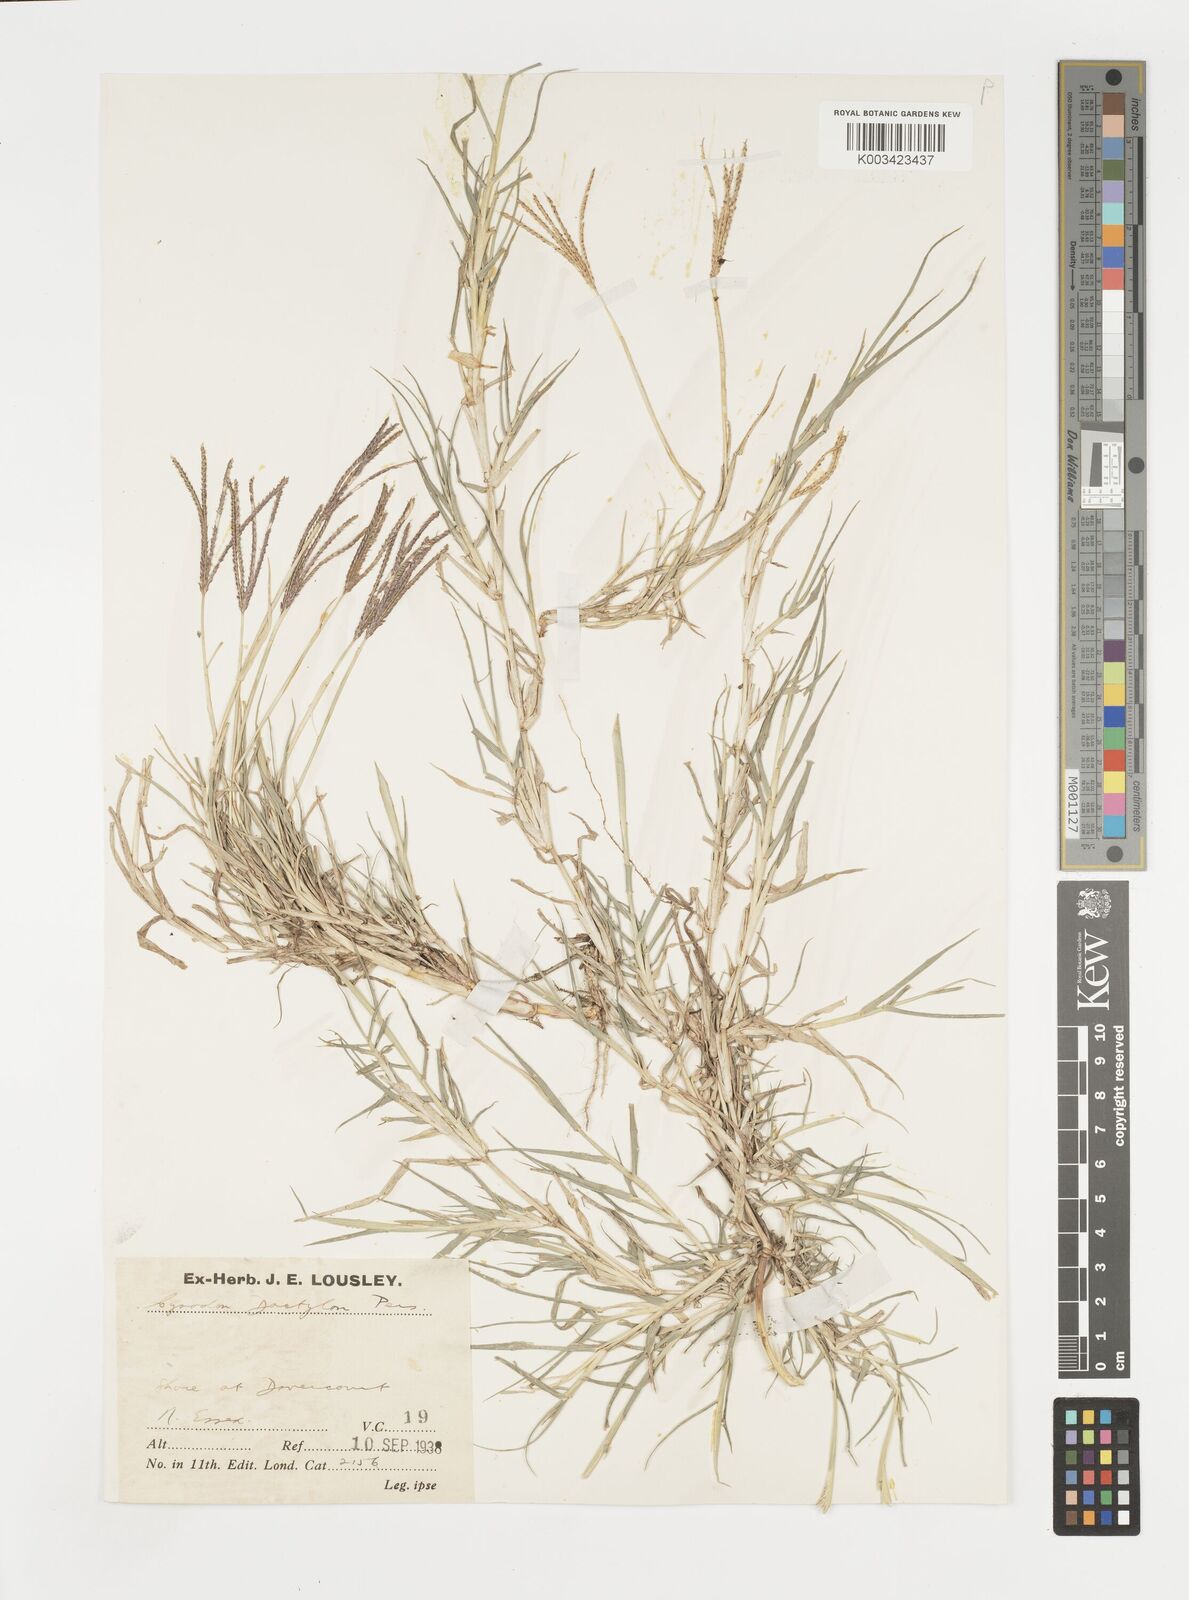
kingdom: Plantae
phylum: Tracheophyta
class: Liliopsida
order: Poales
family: Poaceae
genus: Cynodon
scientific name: Cynodon dactylon
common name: Bermuda grass
